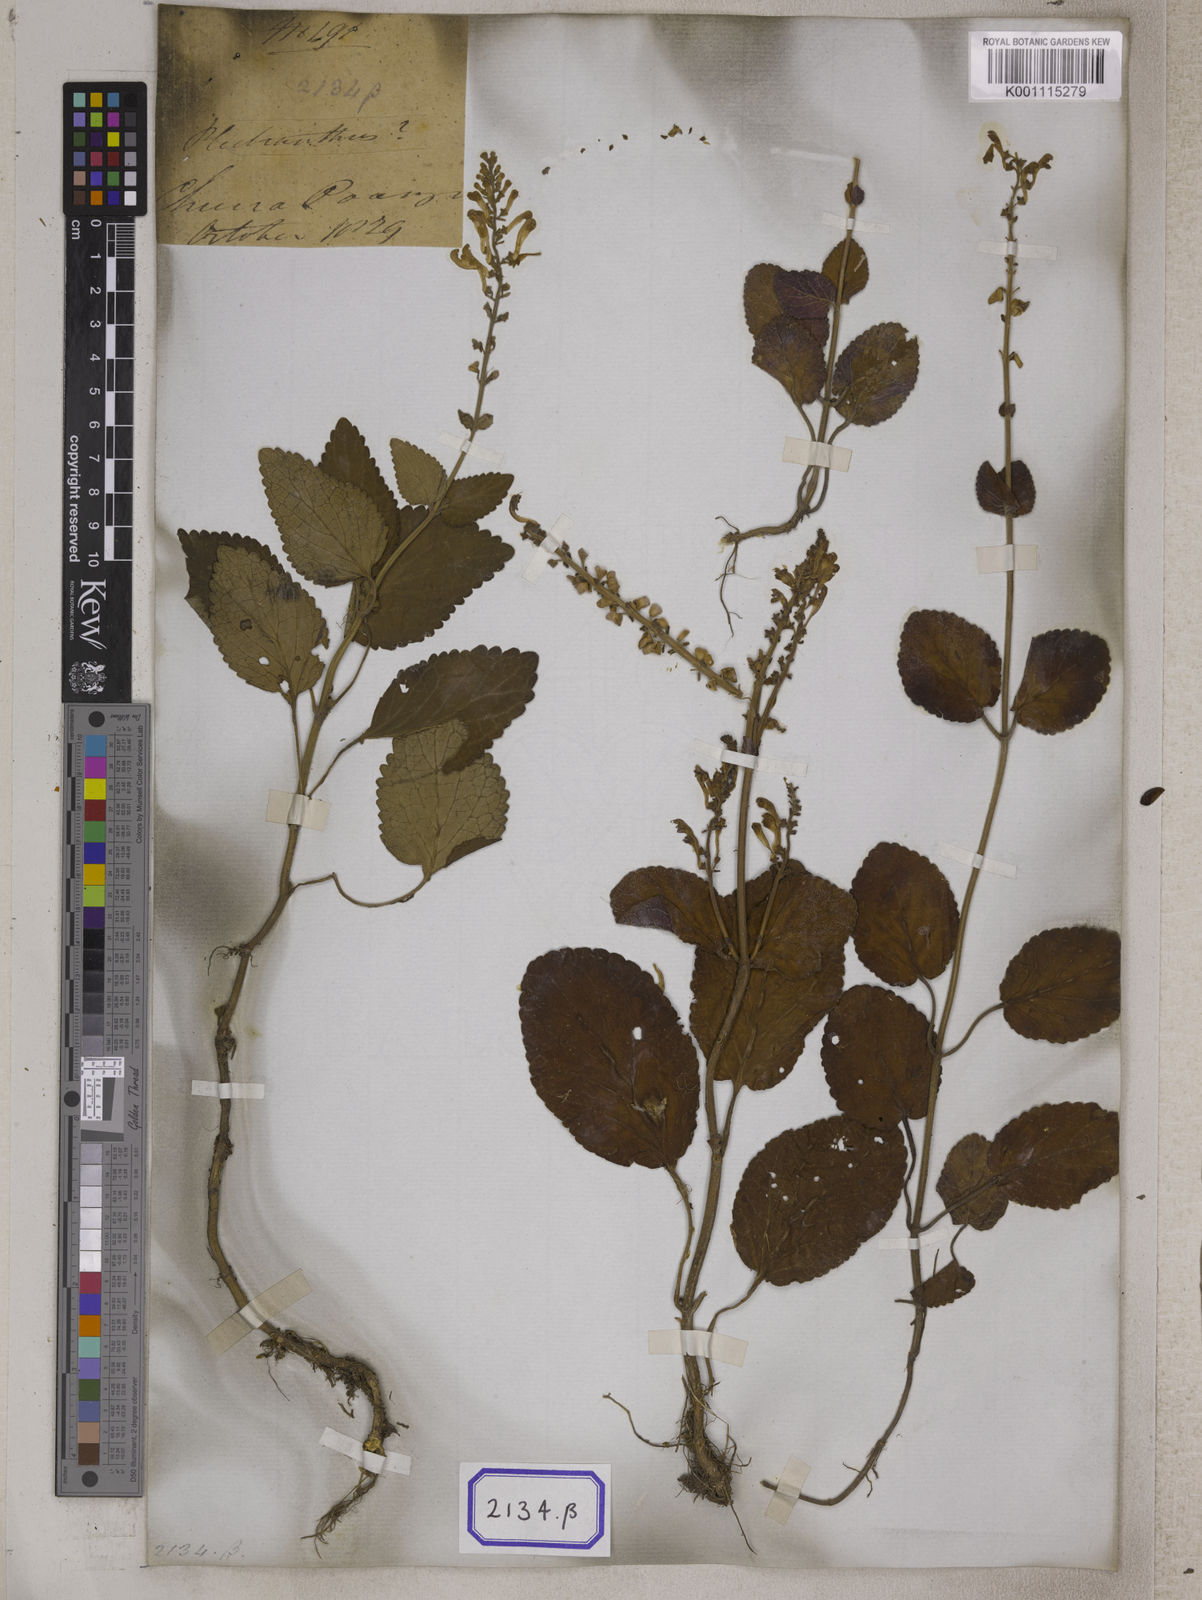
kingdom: Plantae
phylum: Tracheophyta
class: Magnoliopsida
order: Lamiales
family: Lamiaceae
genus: Scutellaria
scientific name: Scutellaria
